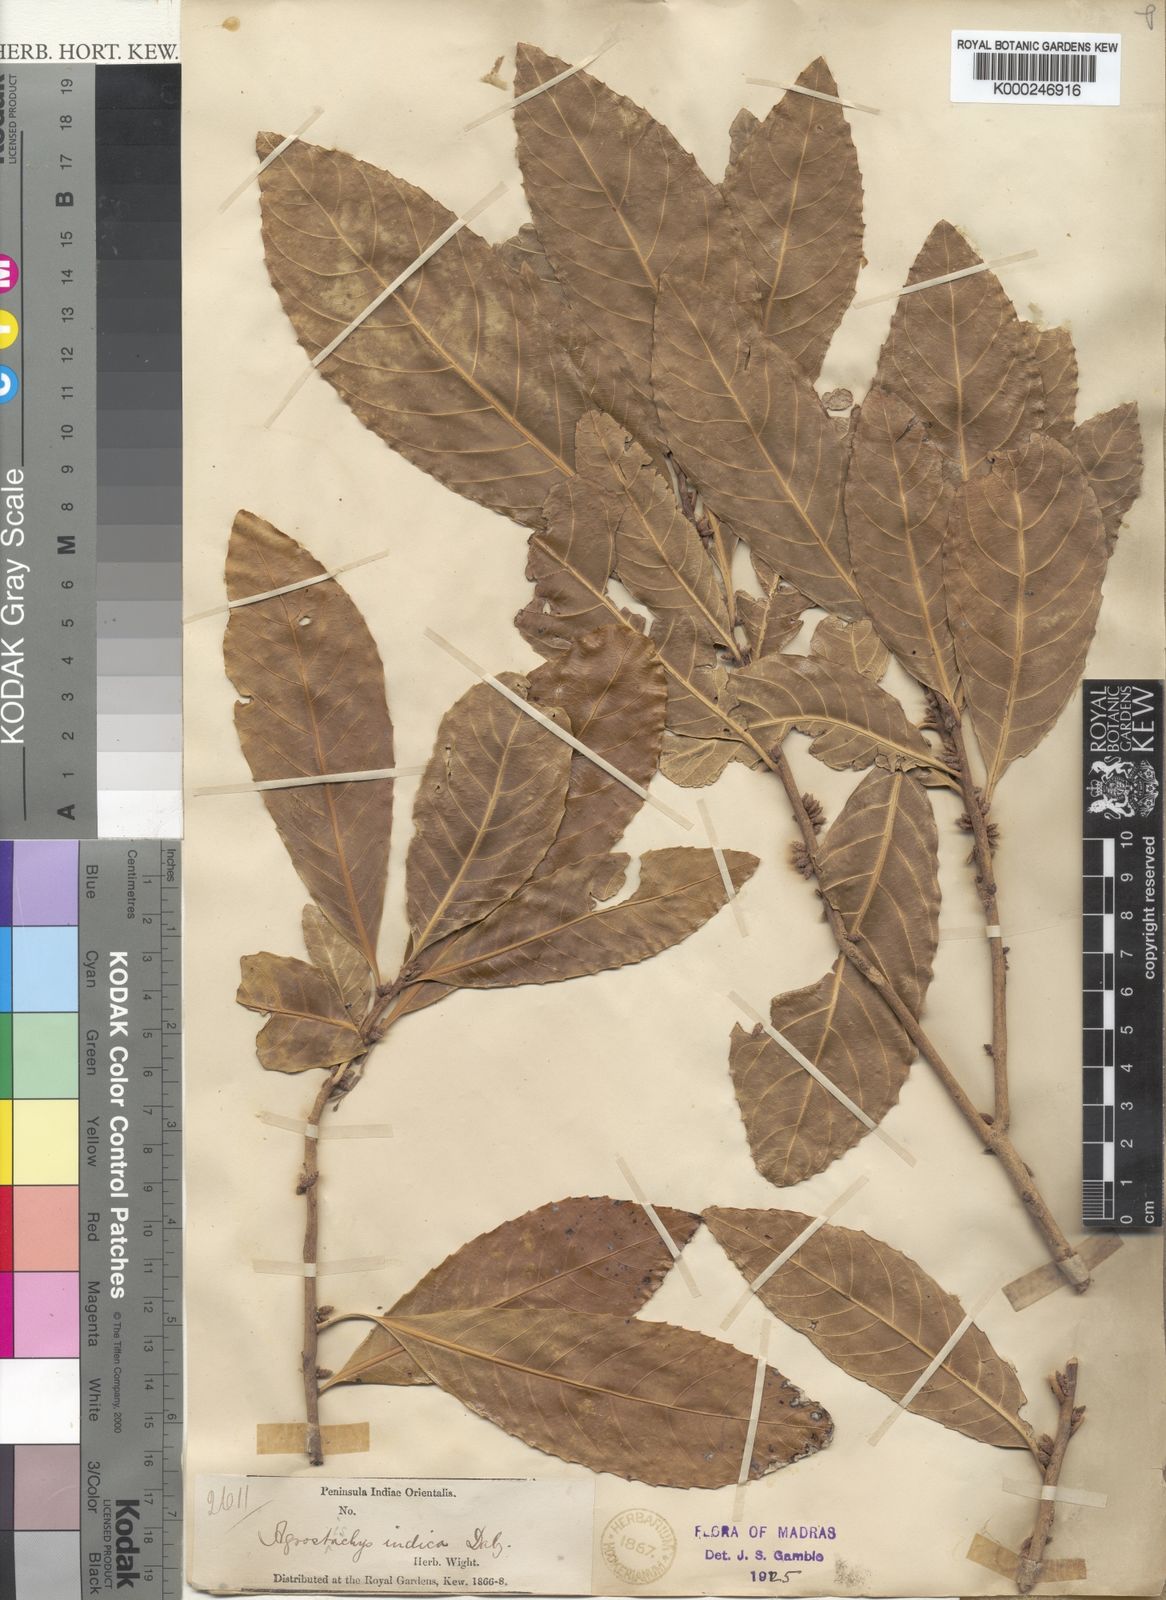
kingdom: Plantae
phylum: Tracheophyta
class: Magnoliopsida
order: Malpighiales
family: Euphorbiaceae
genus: Agrostistachys
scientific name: Agrostistachys indica
